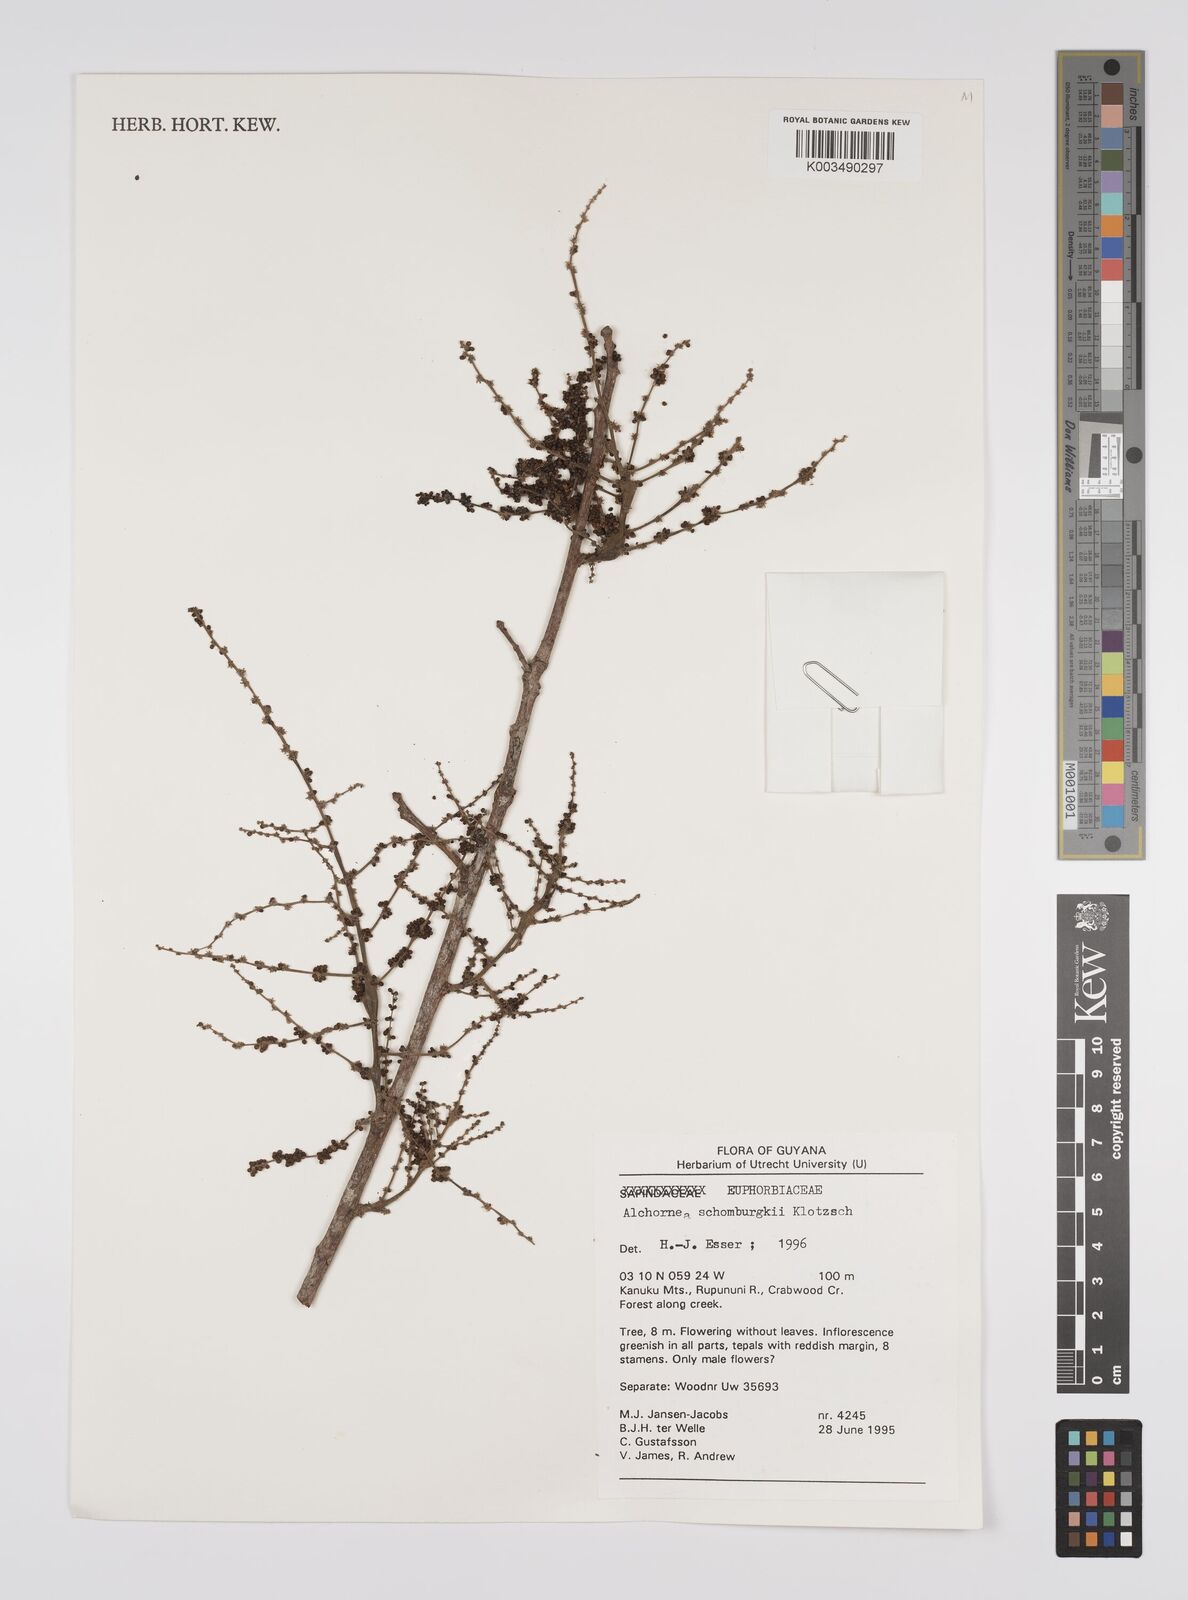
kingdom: Plantae
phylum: Tracheophyta
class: Magnoliopsida
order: Malpighiales
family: Euphorbiaceae
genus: Alchornea
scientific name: Alchornea discolor
